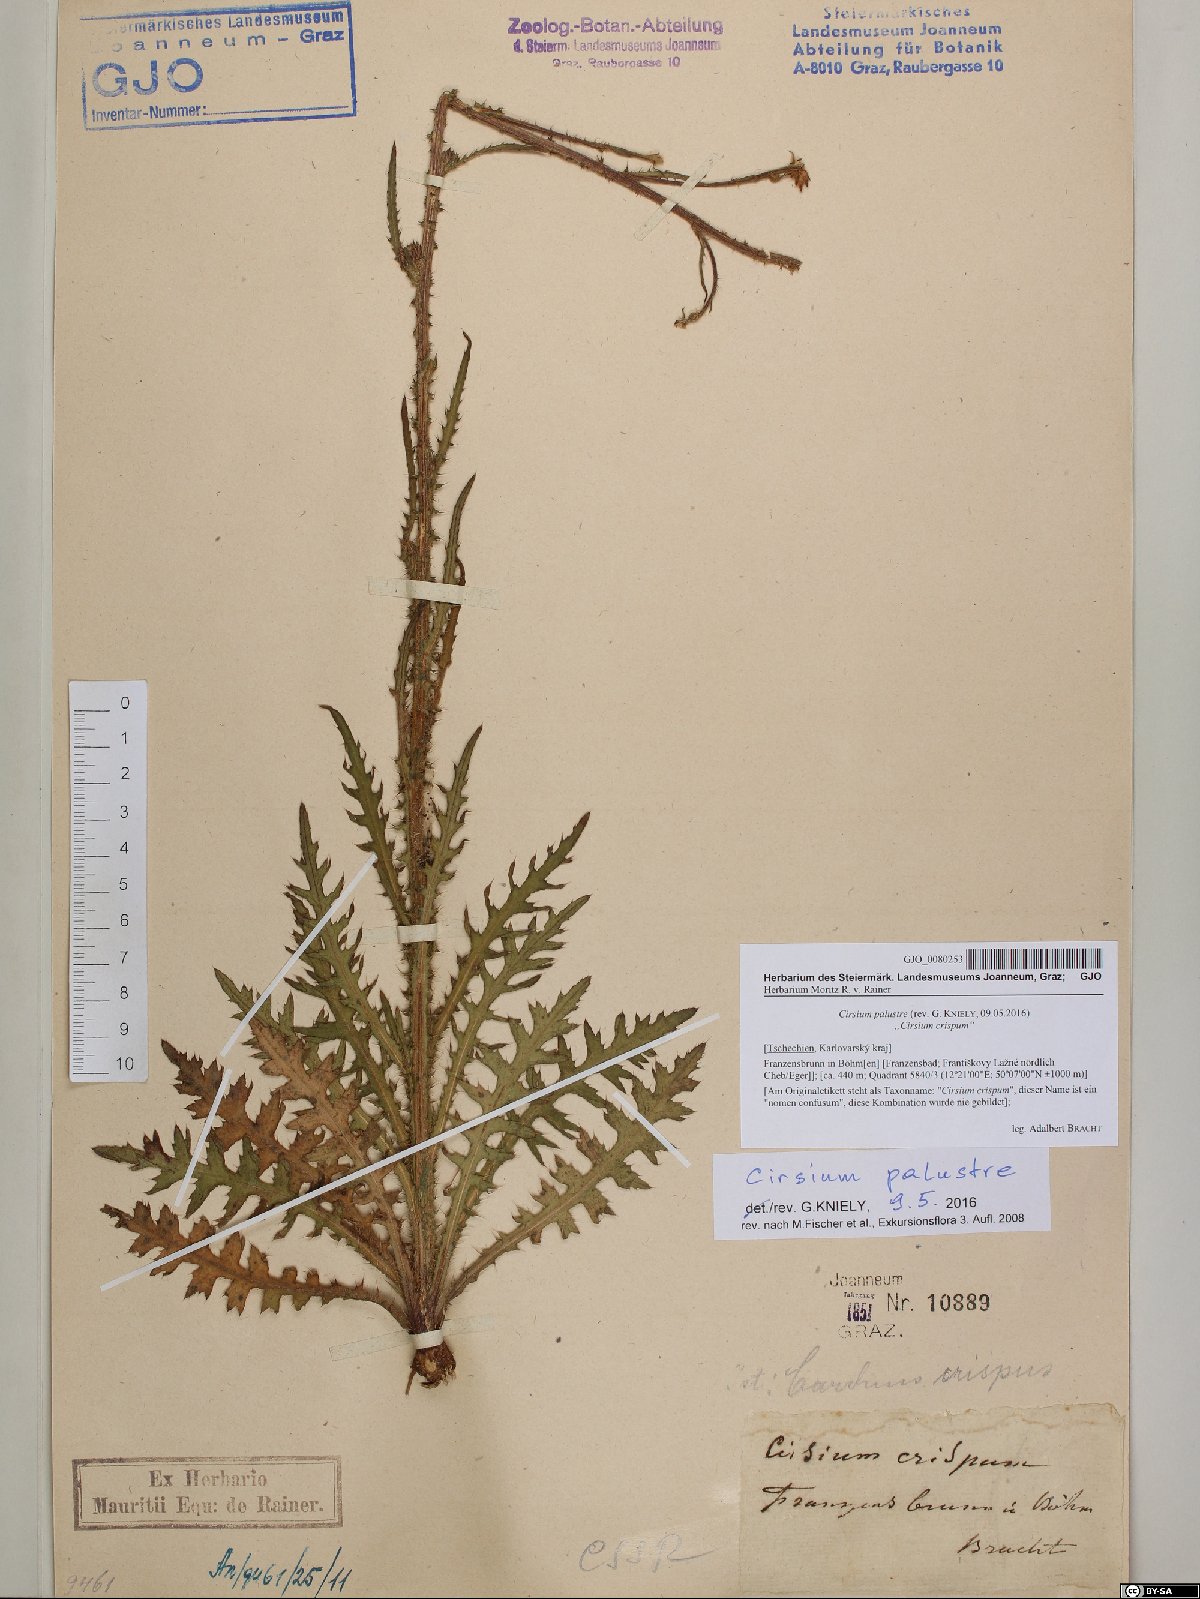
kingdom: Plantae
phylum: Tracheophyta
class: Magnoliopsida
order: Asterales
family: Asteraceae
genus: Cirsium
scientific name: Cirsium palustre
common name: Marsh thistle
